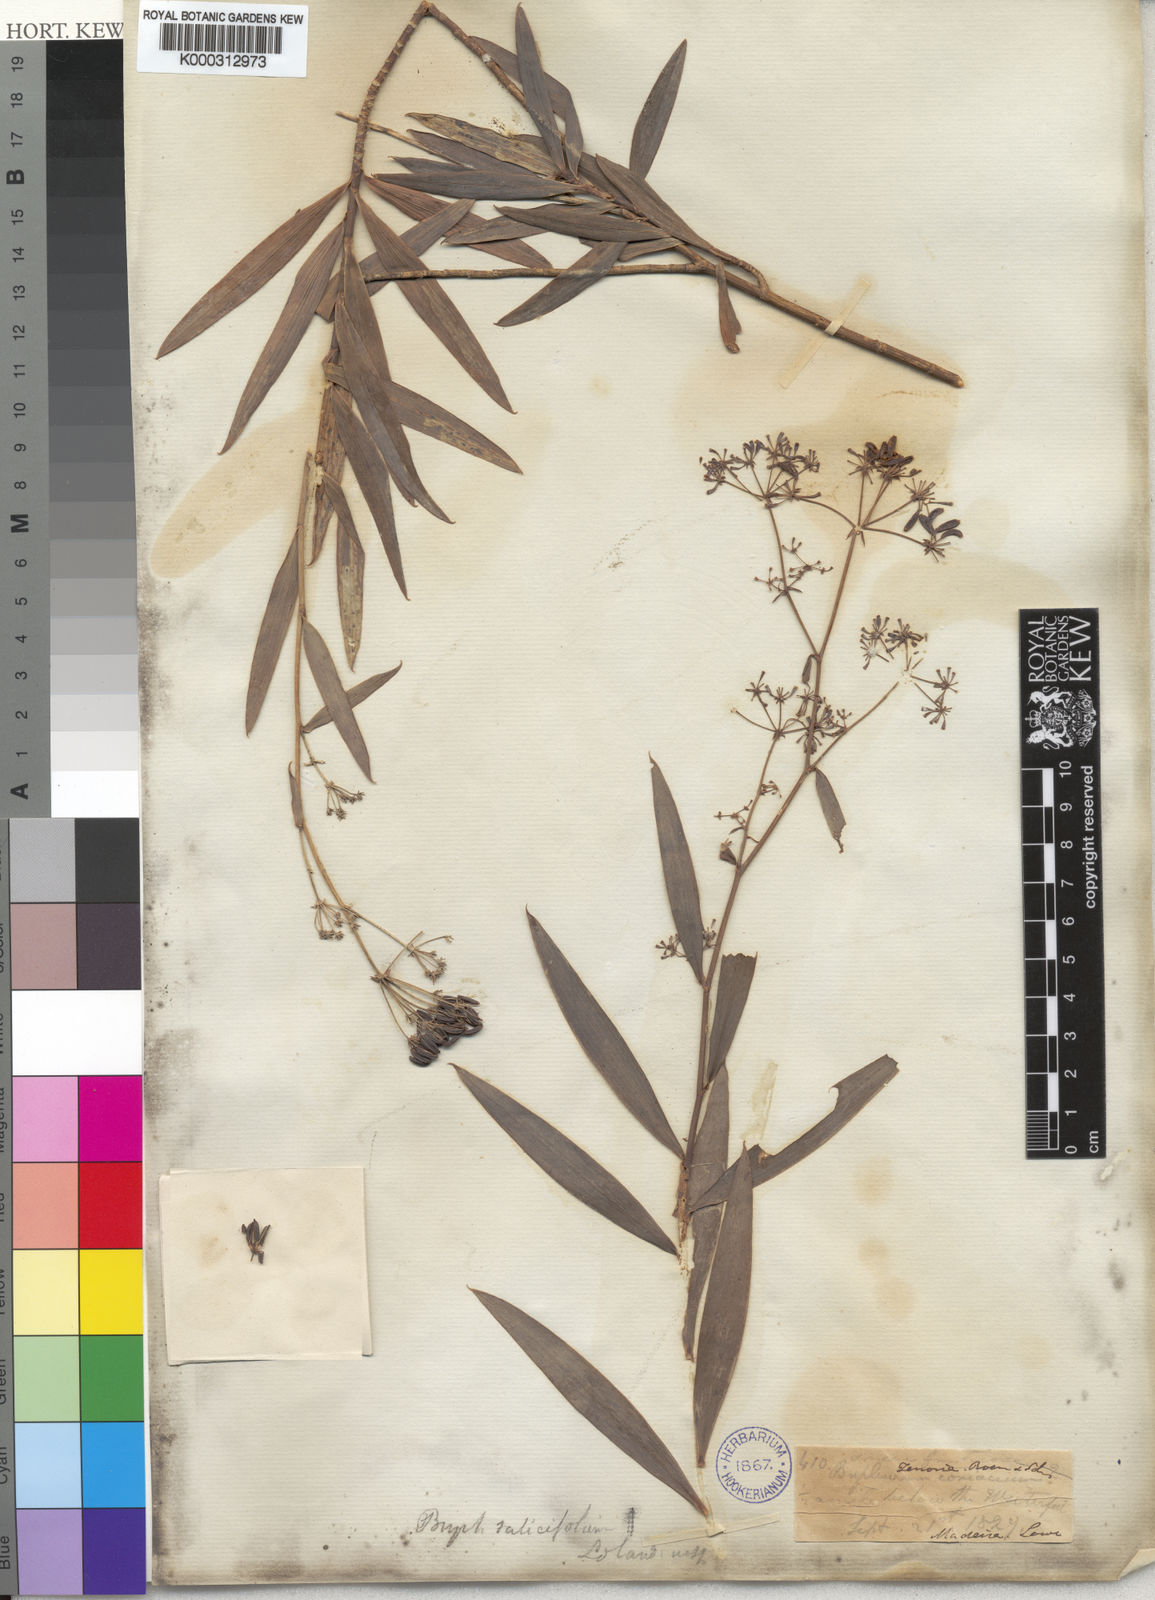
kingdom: Plantae
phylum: Tracheophyta
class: Magnoliopsida
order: Apiales
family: Apiaceae
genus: Bupleurum
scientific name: Bupleurum
